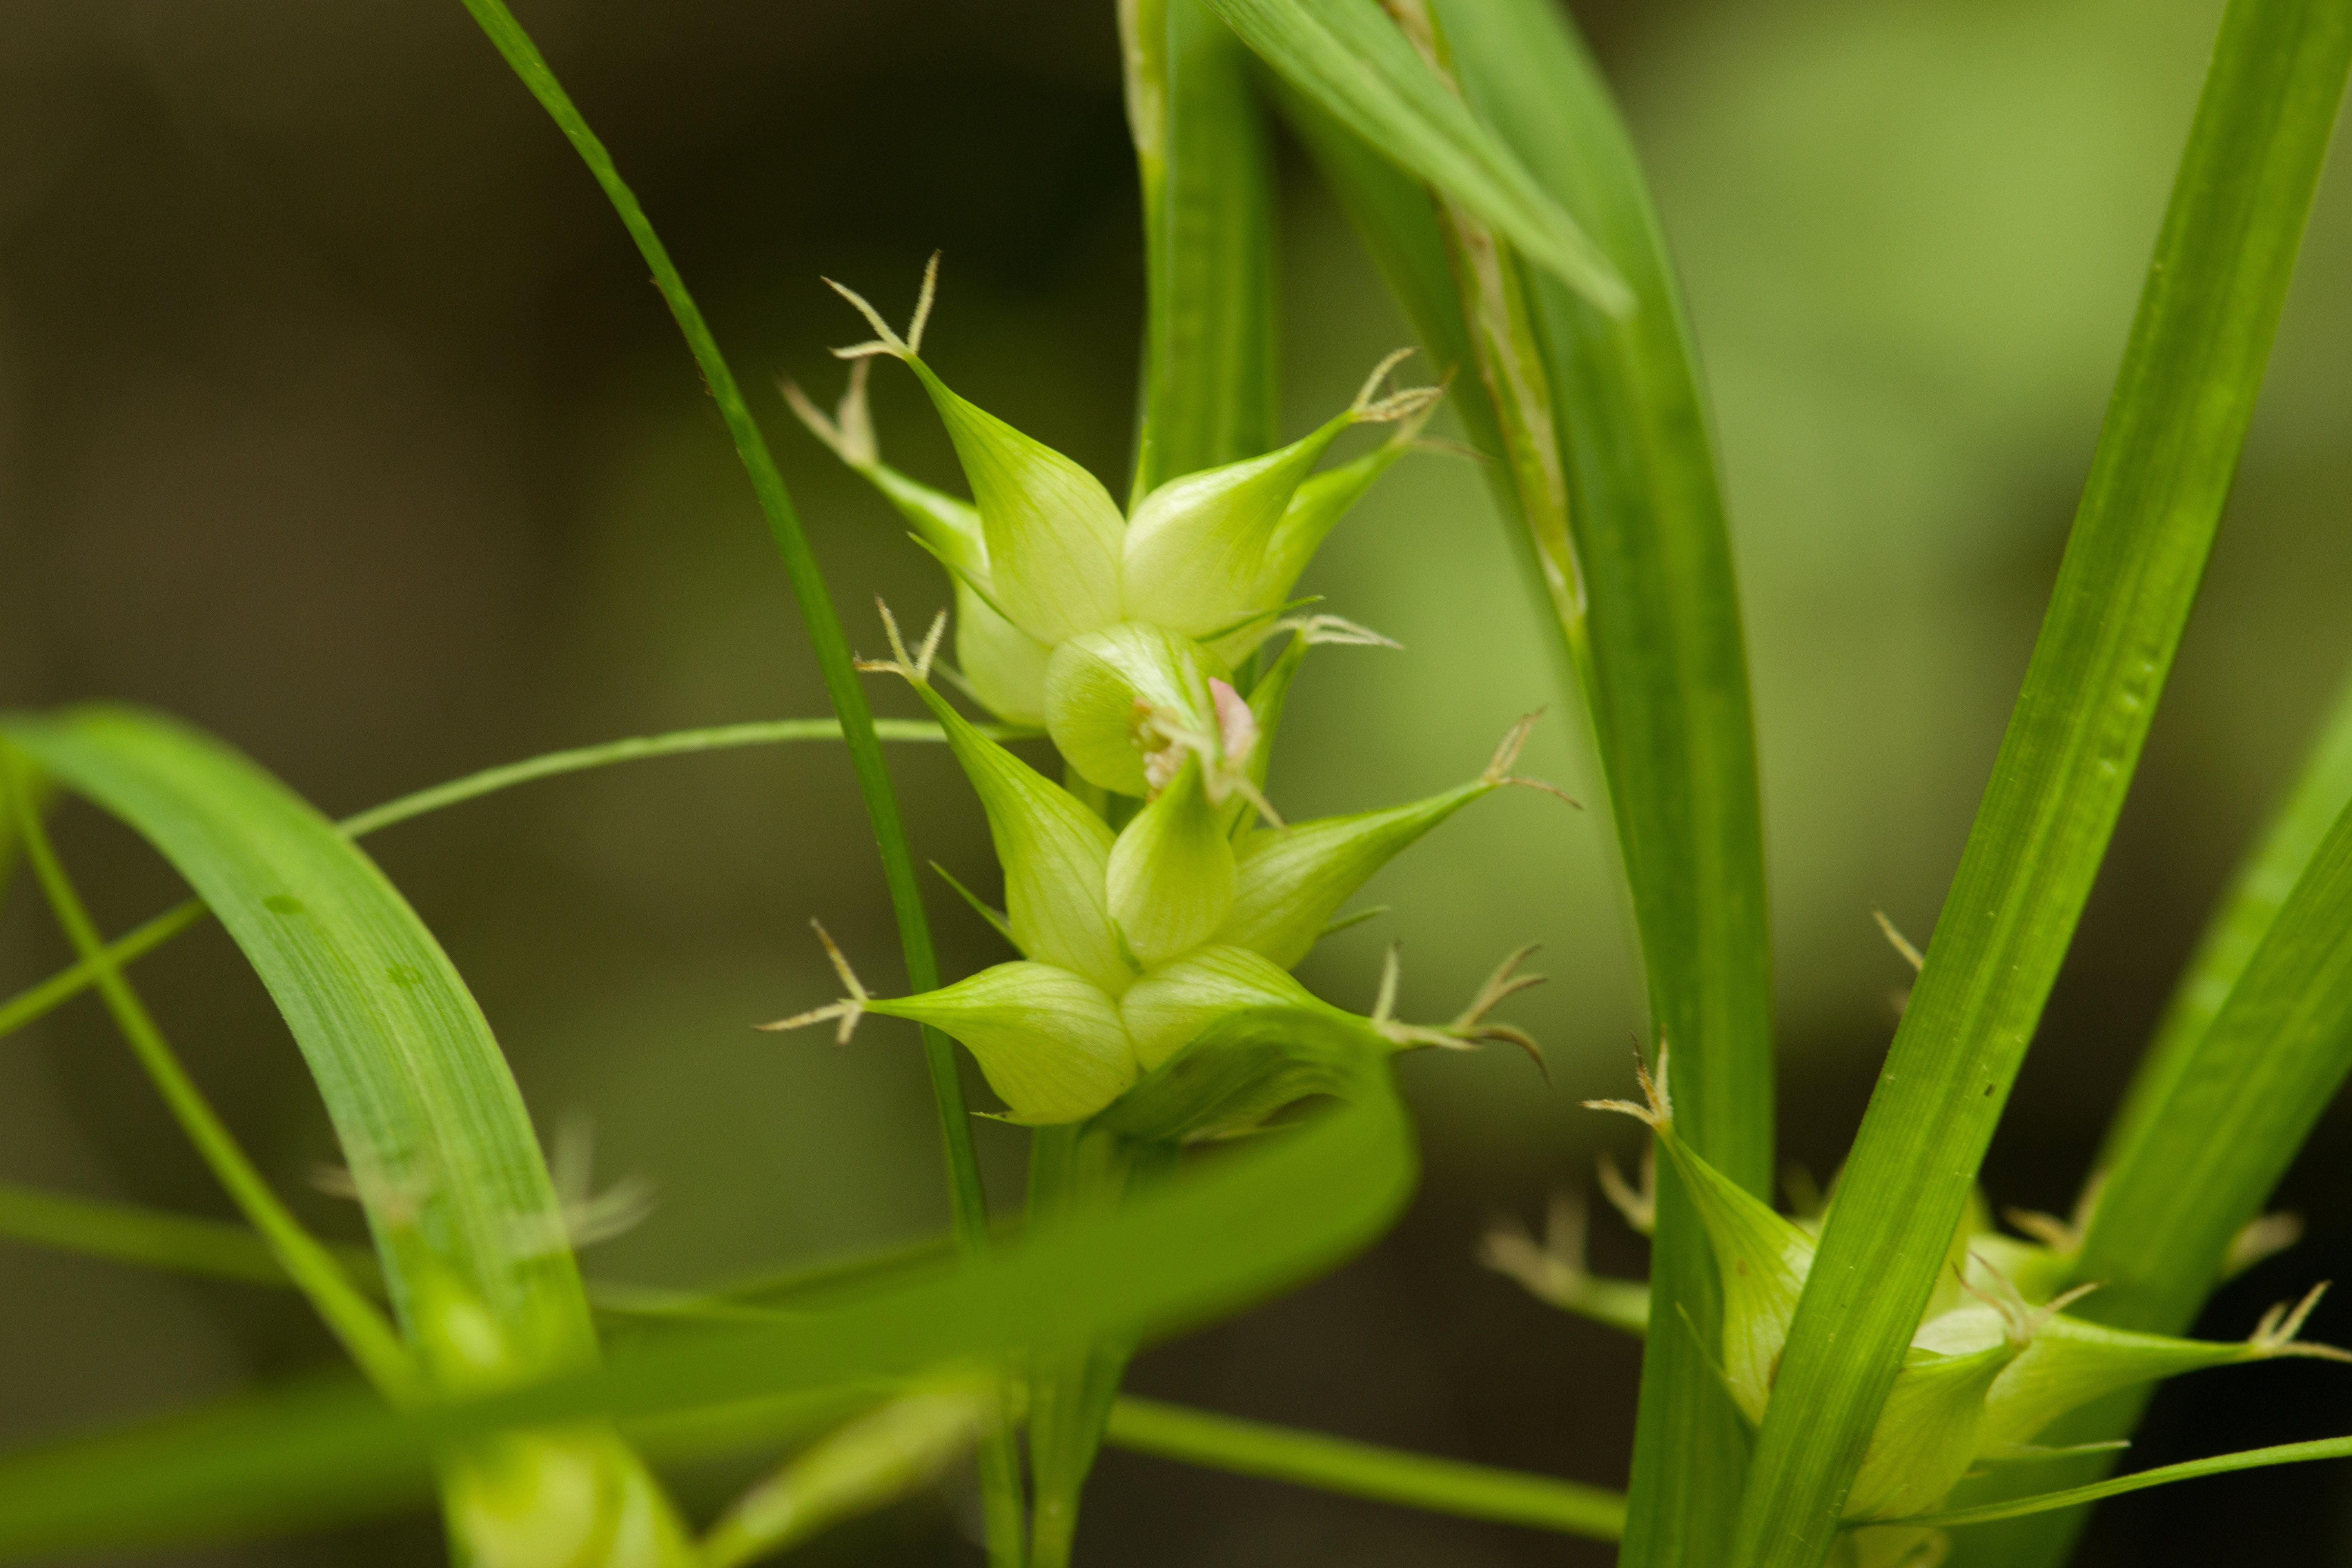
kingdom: Plantae
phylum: Tracheophyta
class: Liliopsida
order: Poales
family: Cyperaceae
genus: Carex
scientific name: Carex intumescens
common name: Greater bladder sedge
